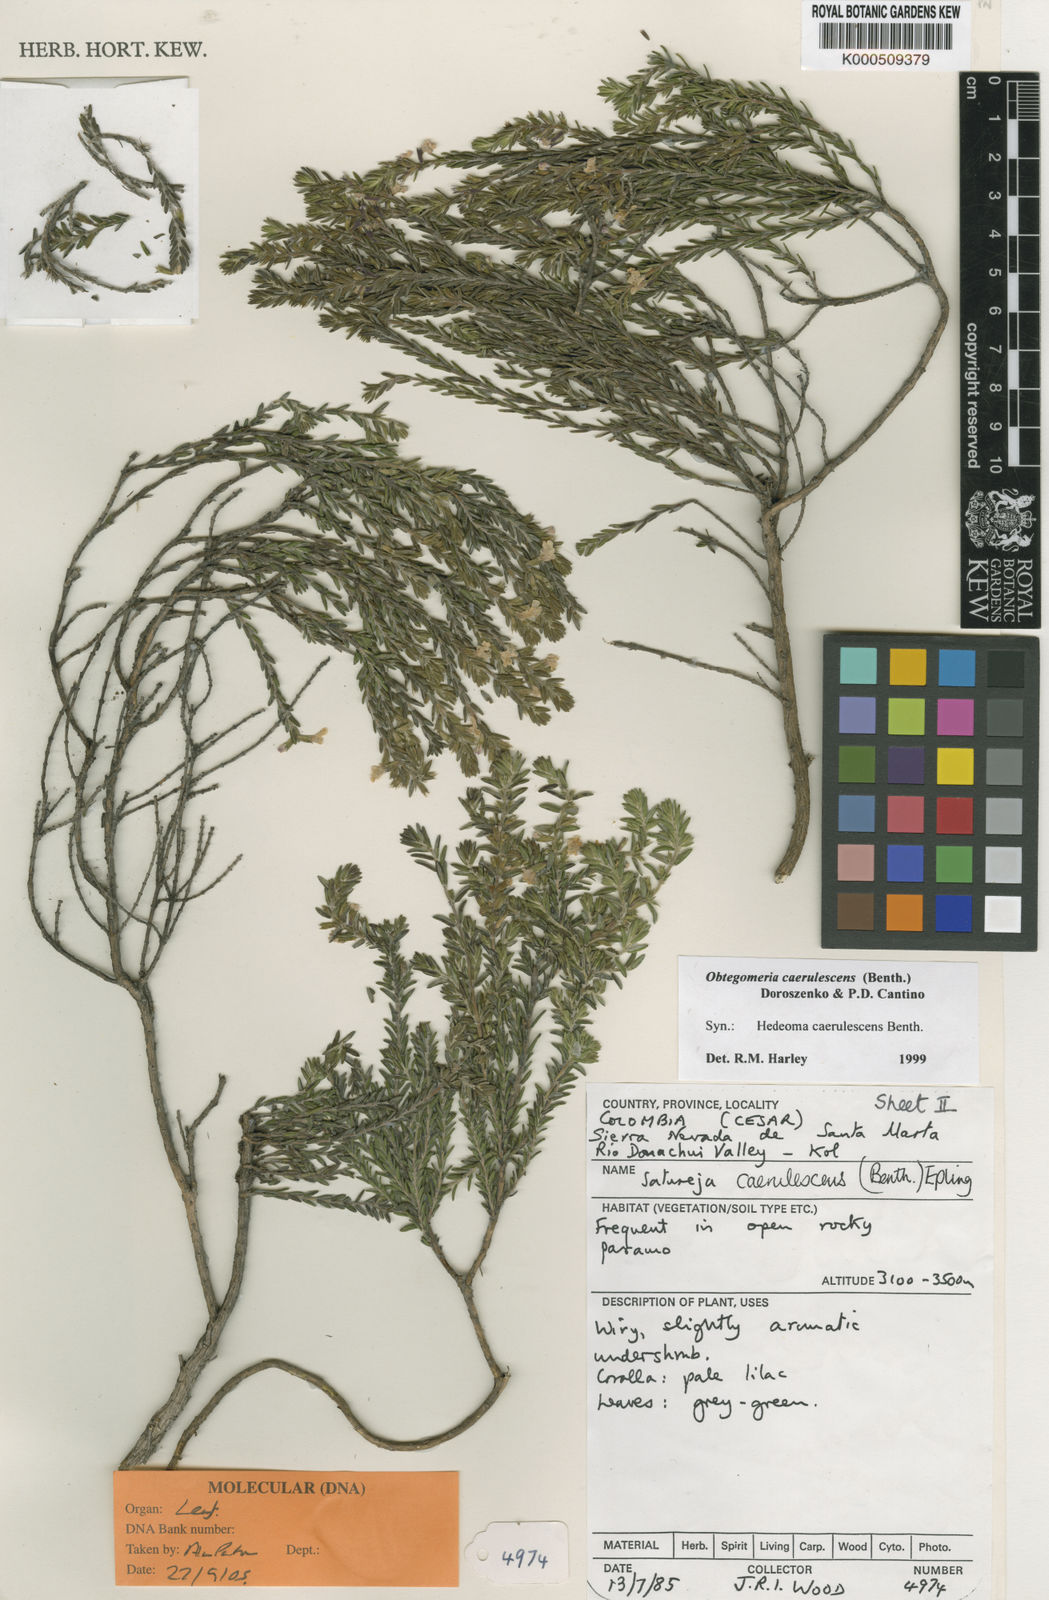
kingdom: Plantae
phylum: Tracheophyta
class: Magnoliopsida
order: Lamiales
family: Lamiaceae
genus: Obtegomeria
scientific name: Obtegomeria caerulescens
